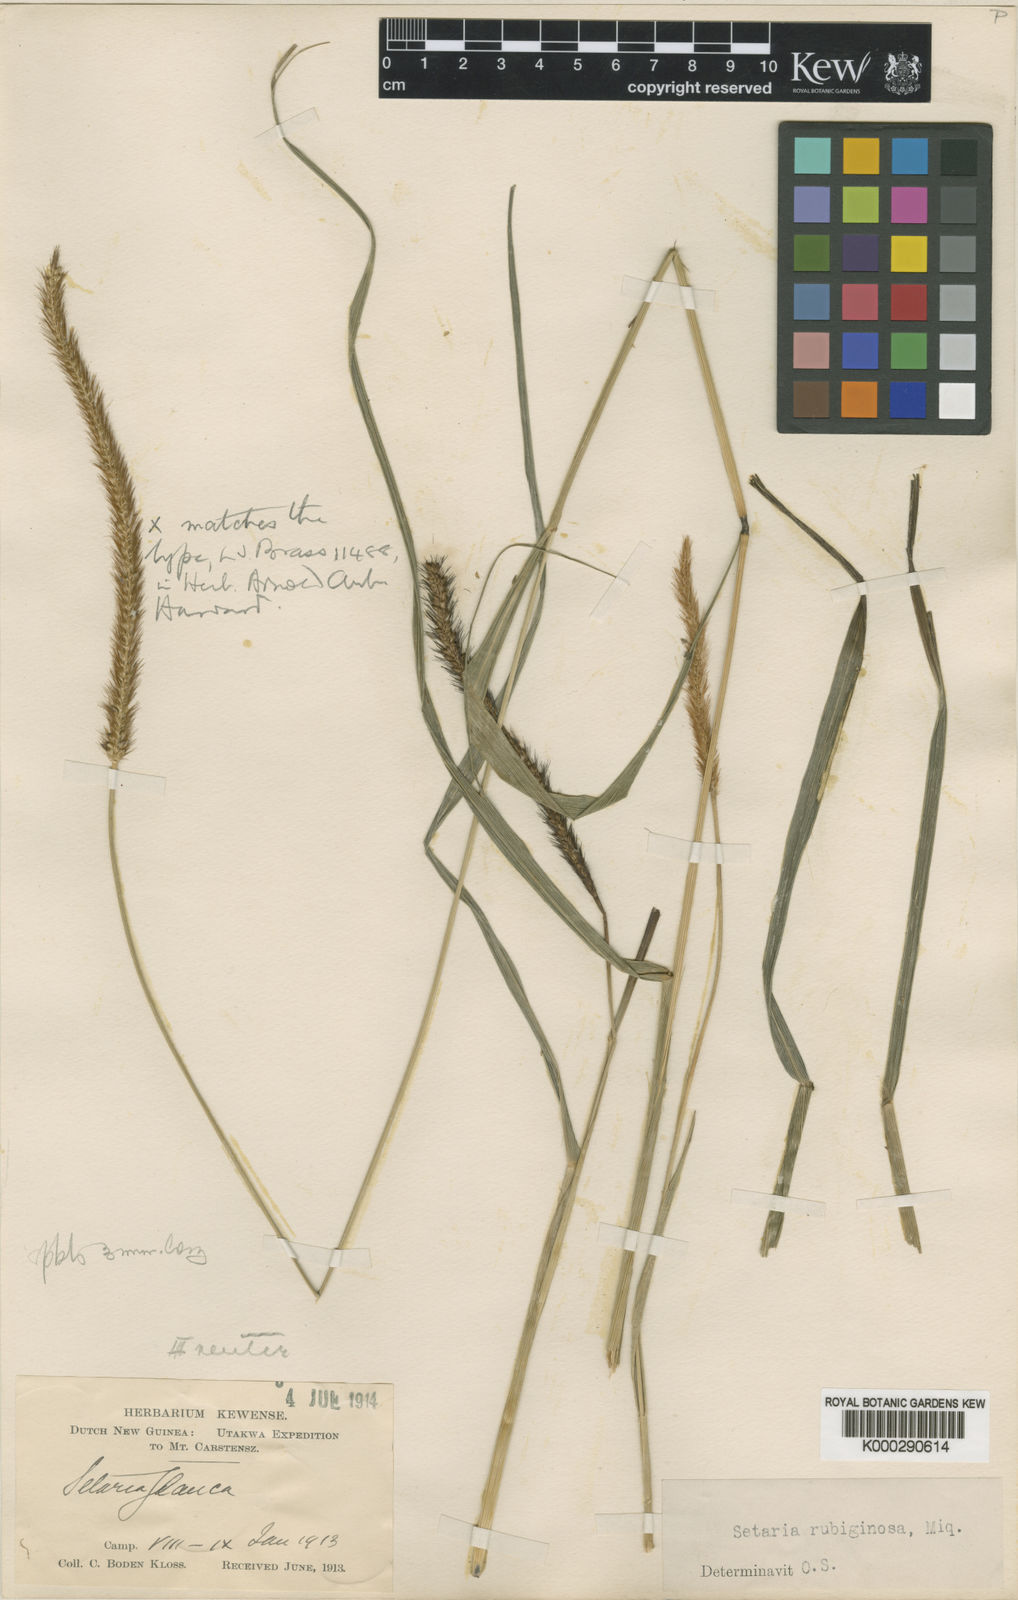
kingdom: Plantae
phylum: Tracheophyta
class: Liliopsida
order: Poales
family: Poaceae
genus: Setaria
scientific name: Setaria
